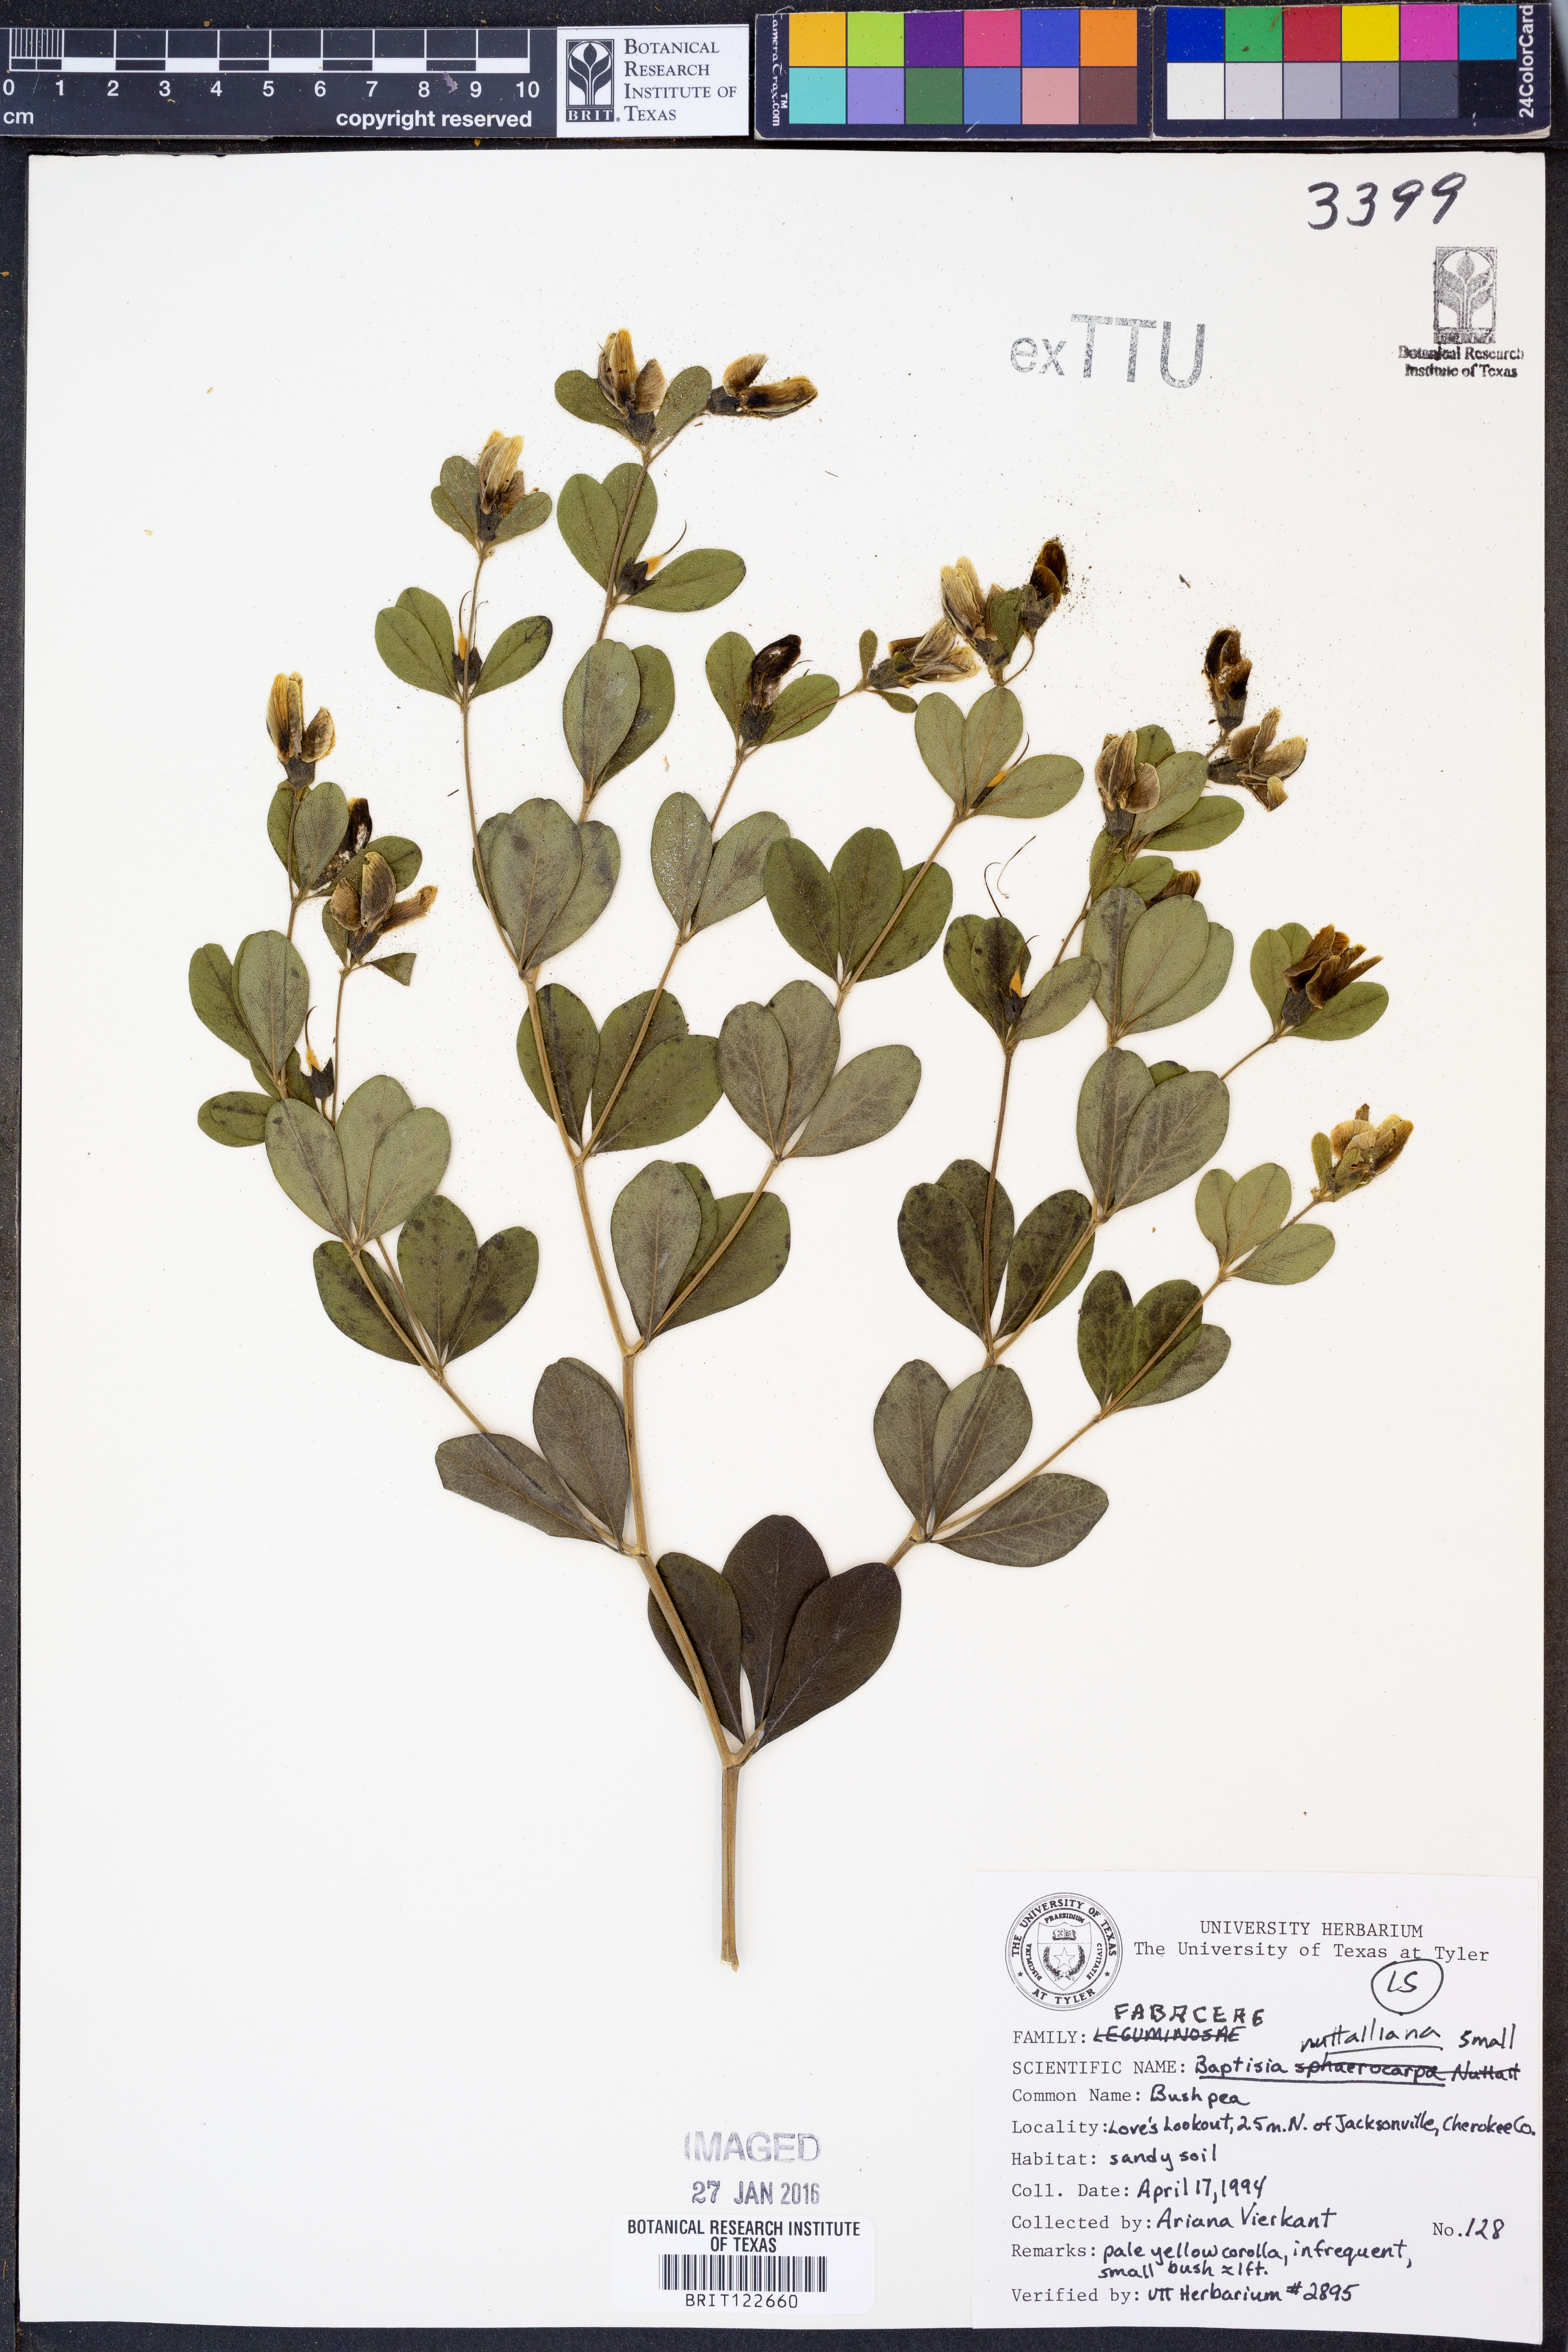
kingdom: Plantae
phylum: Tracheophyta
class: Magnoliopsida
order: Fabales
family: Fabaceae
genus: Baptisia
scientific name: Baptisia nuttalliana
